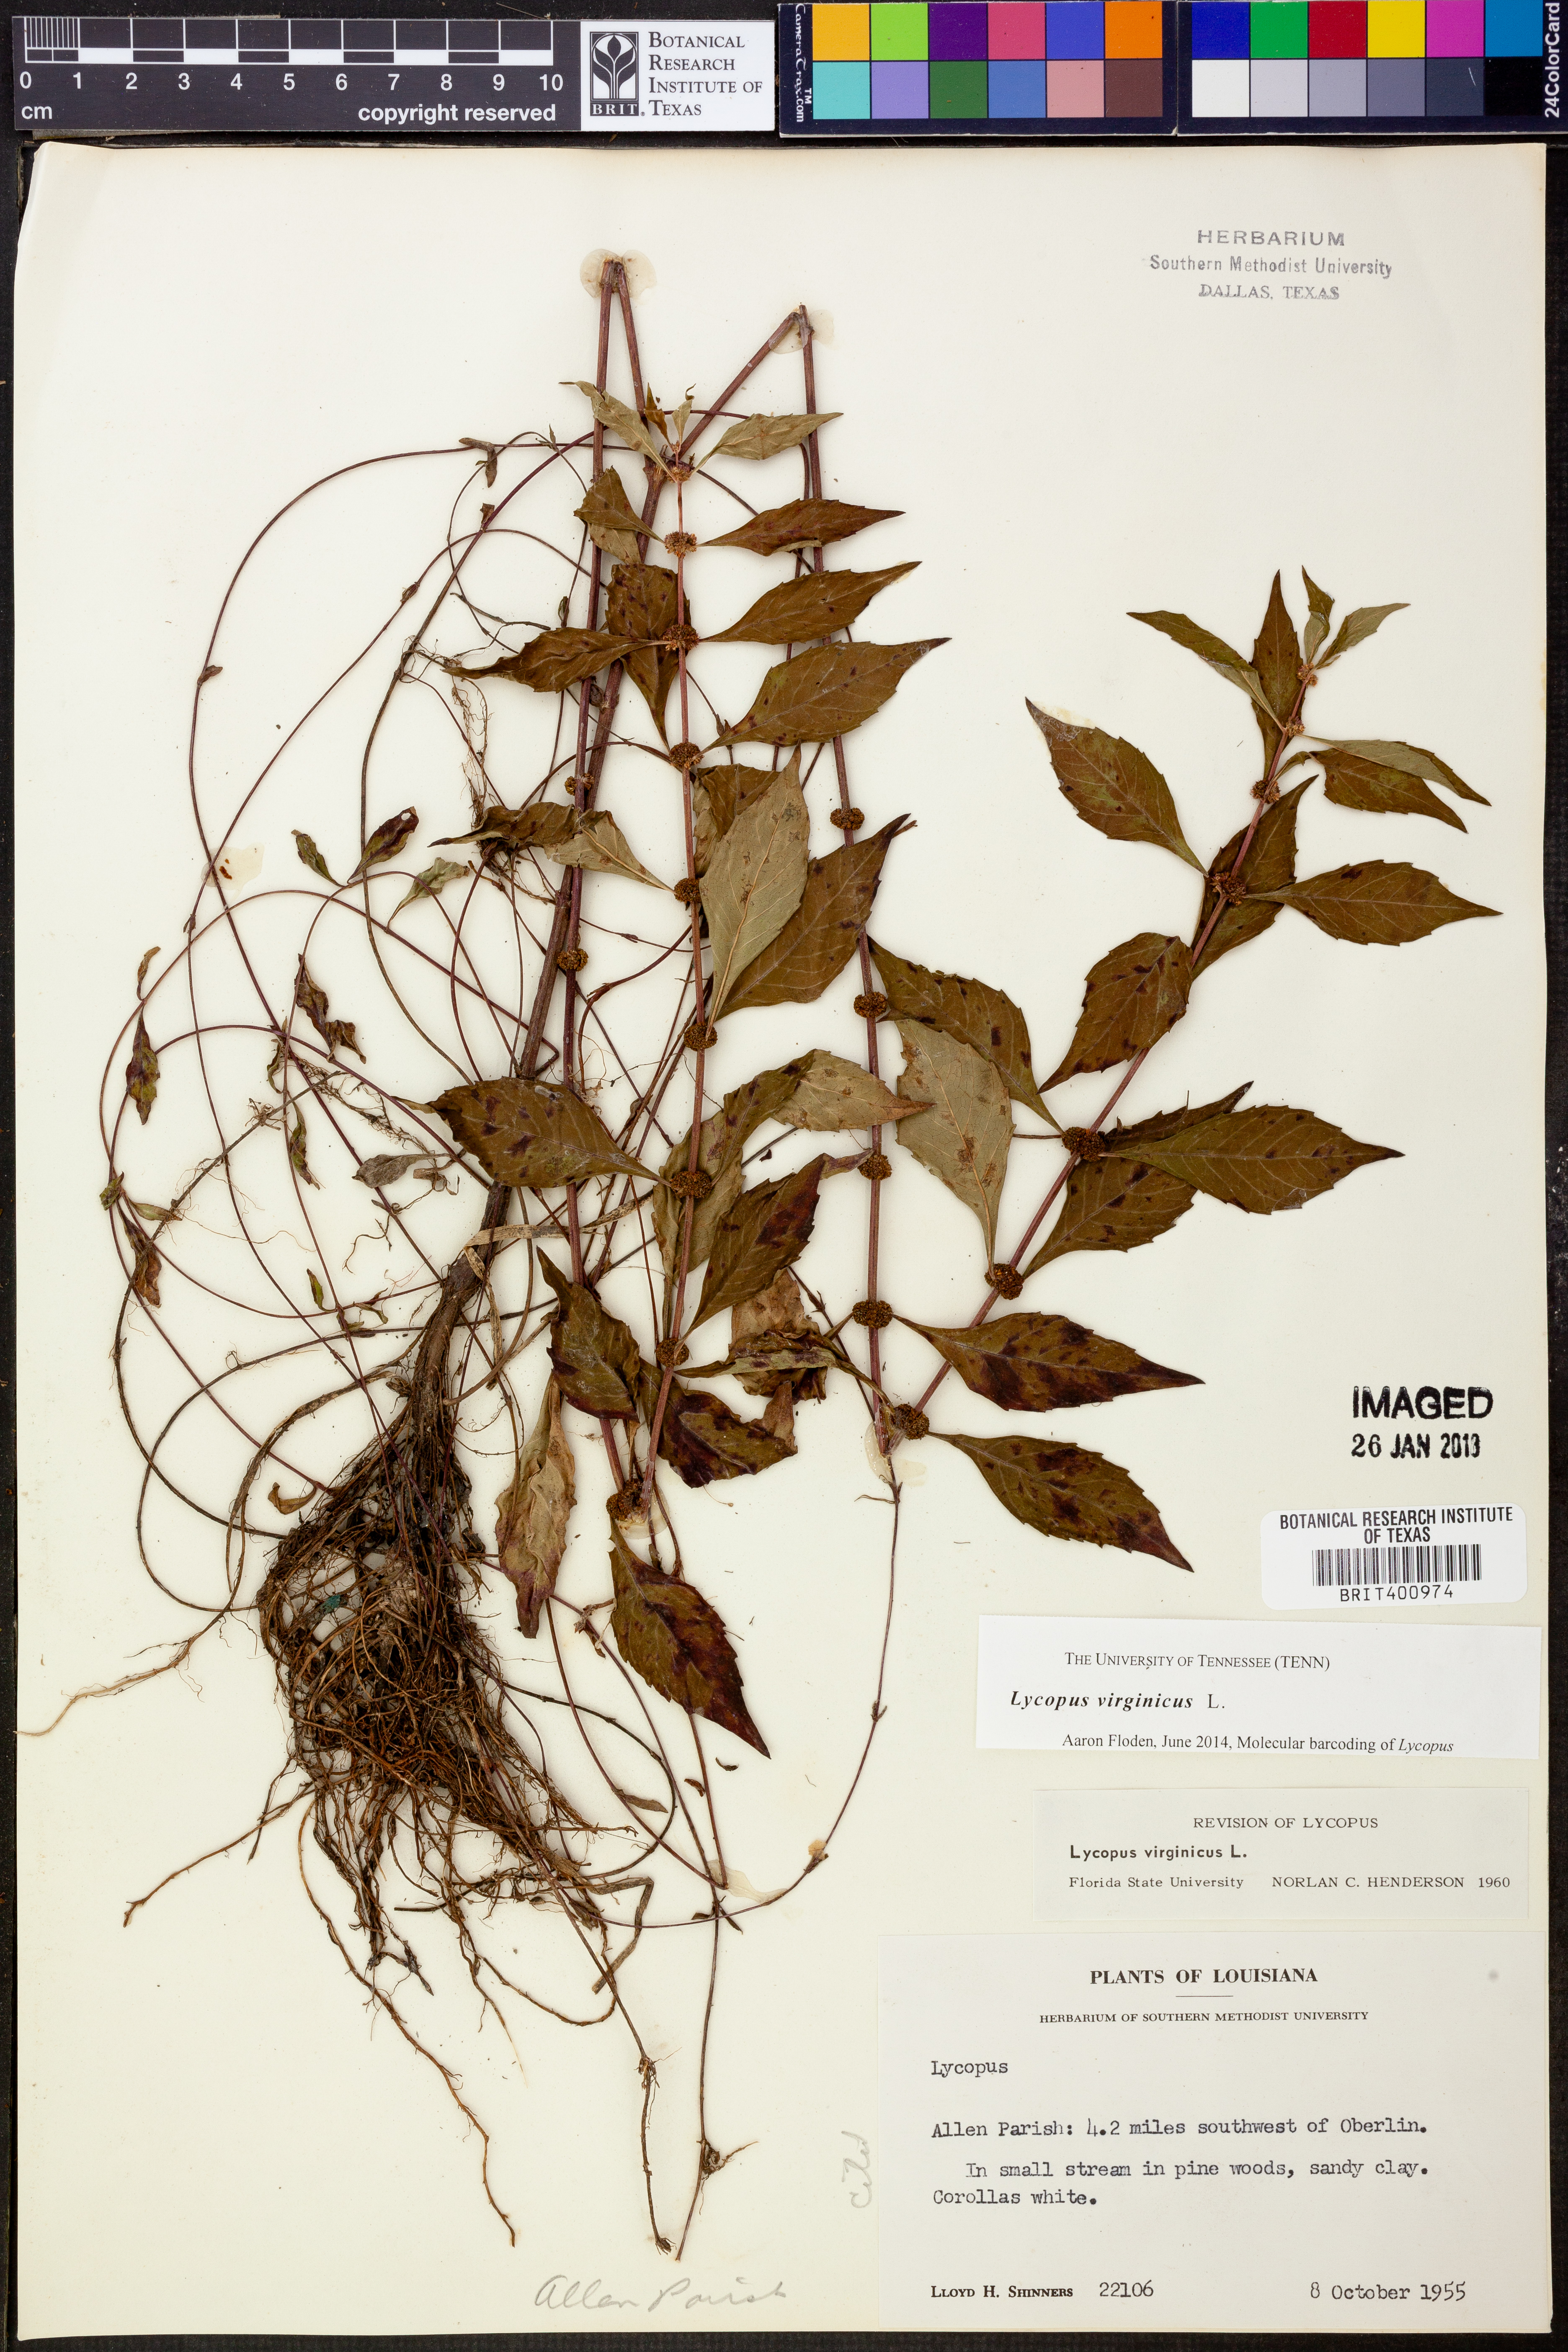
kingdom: Plantae
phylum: Tracheophyta
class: Magnoliopsida
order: Lamiales
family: Lamiaceae
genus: Lycopus
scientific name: Lycopus virginicus
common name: Bugleweed
